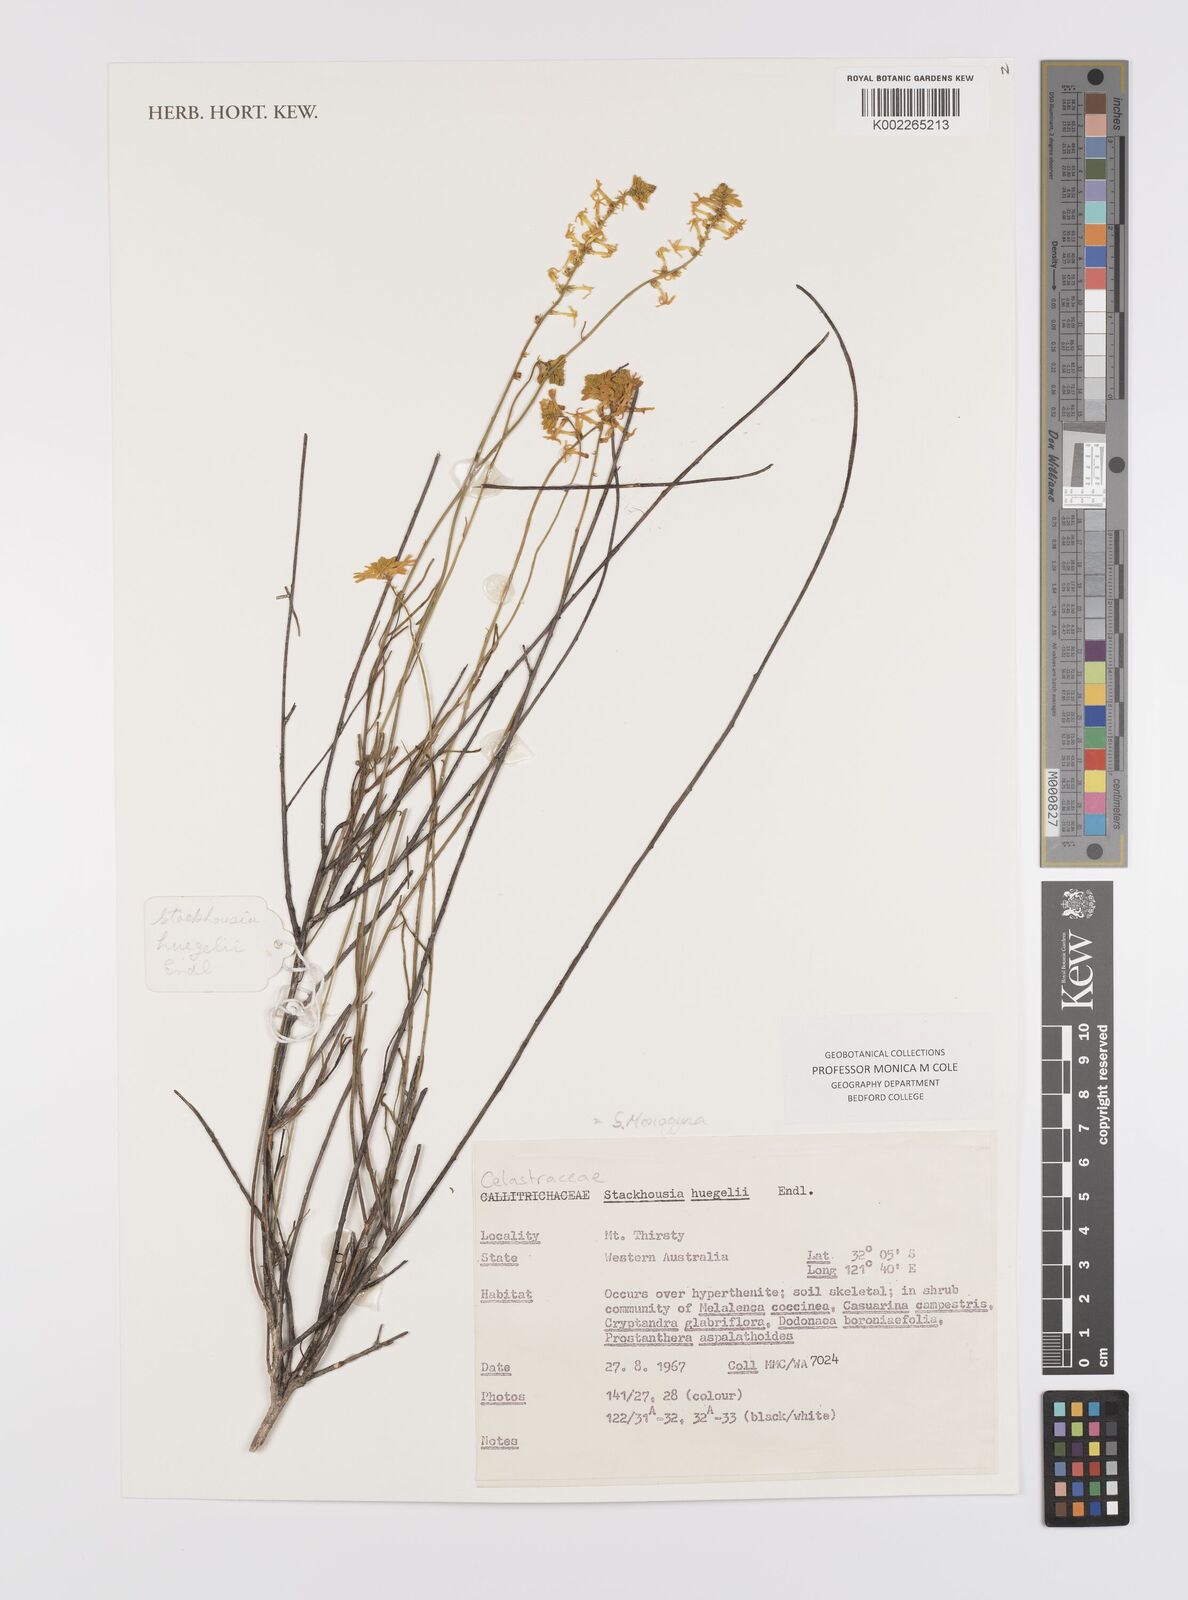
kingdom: Plantae
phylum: Tracheophyta
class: Magnoliopsida
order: Celastrales
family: Celastraceae
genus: Stackhousia
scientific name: Stackhousia monogyna
